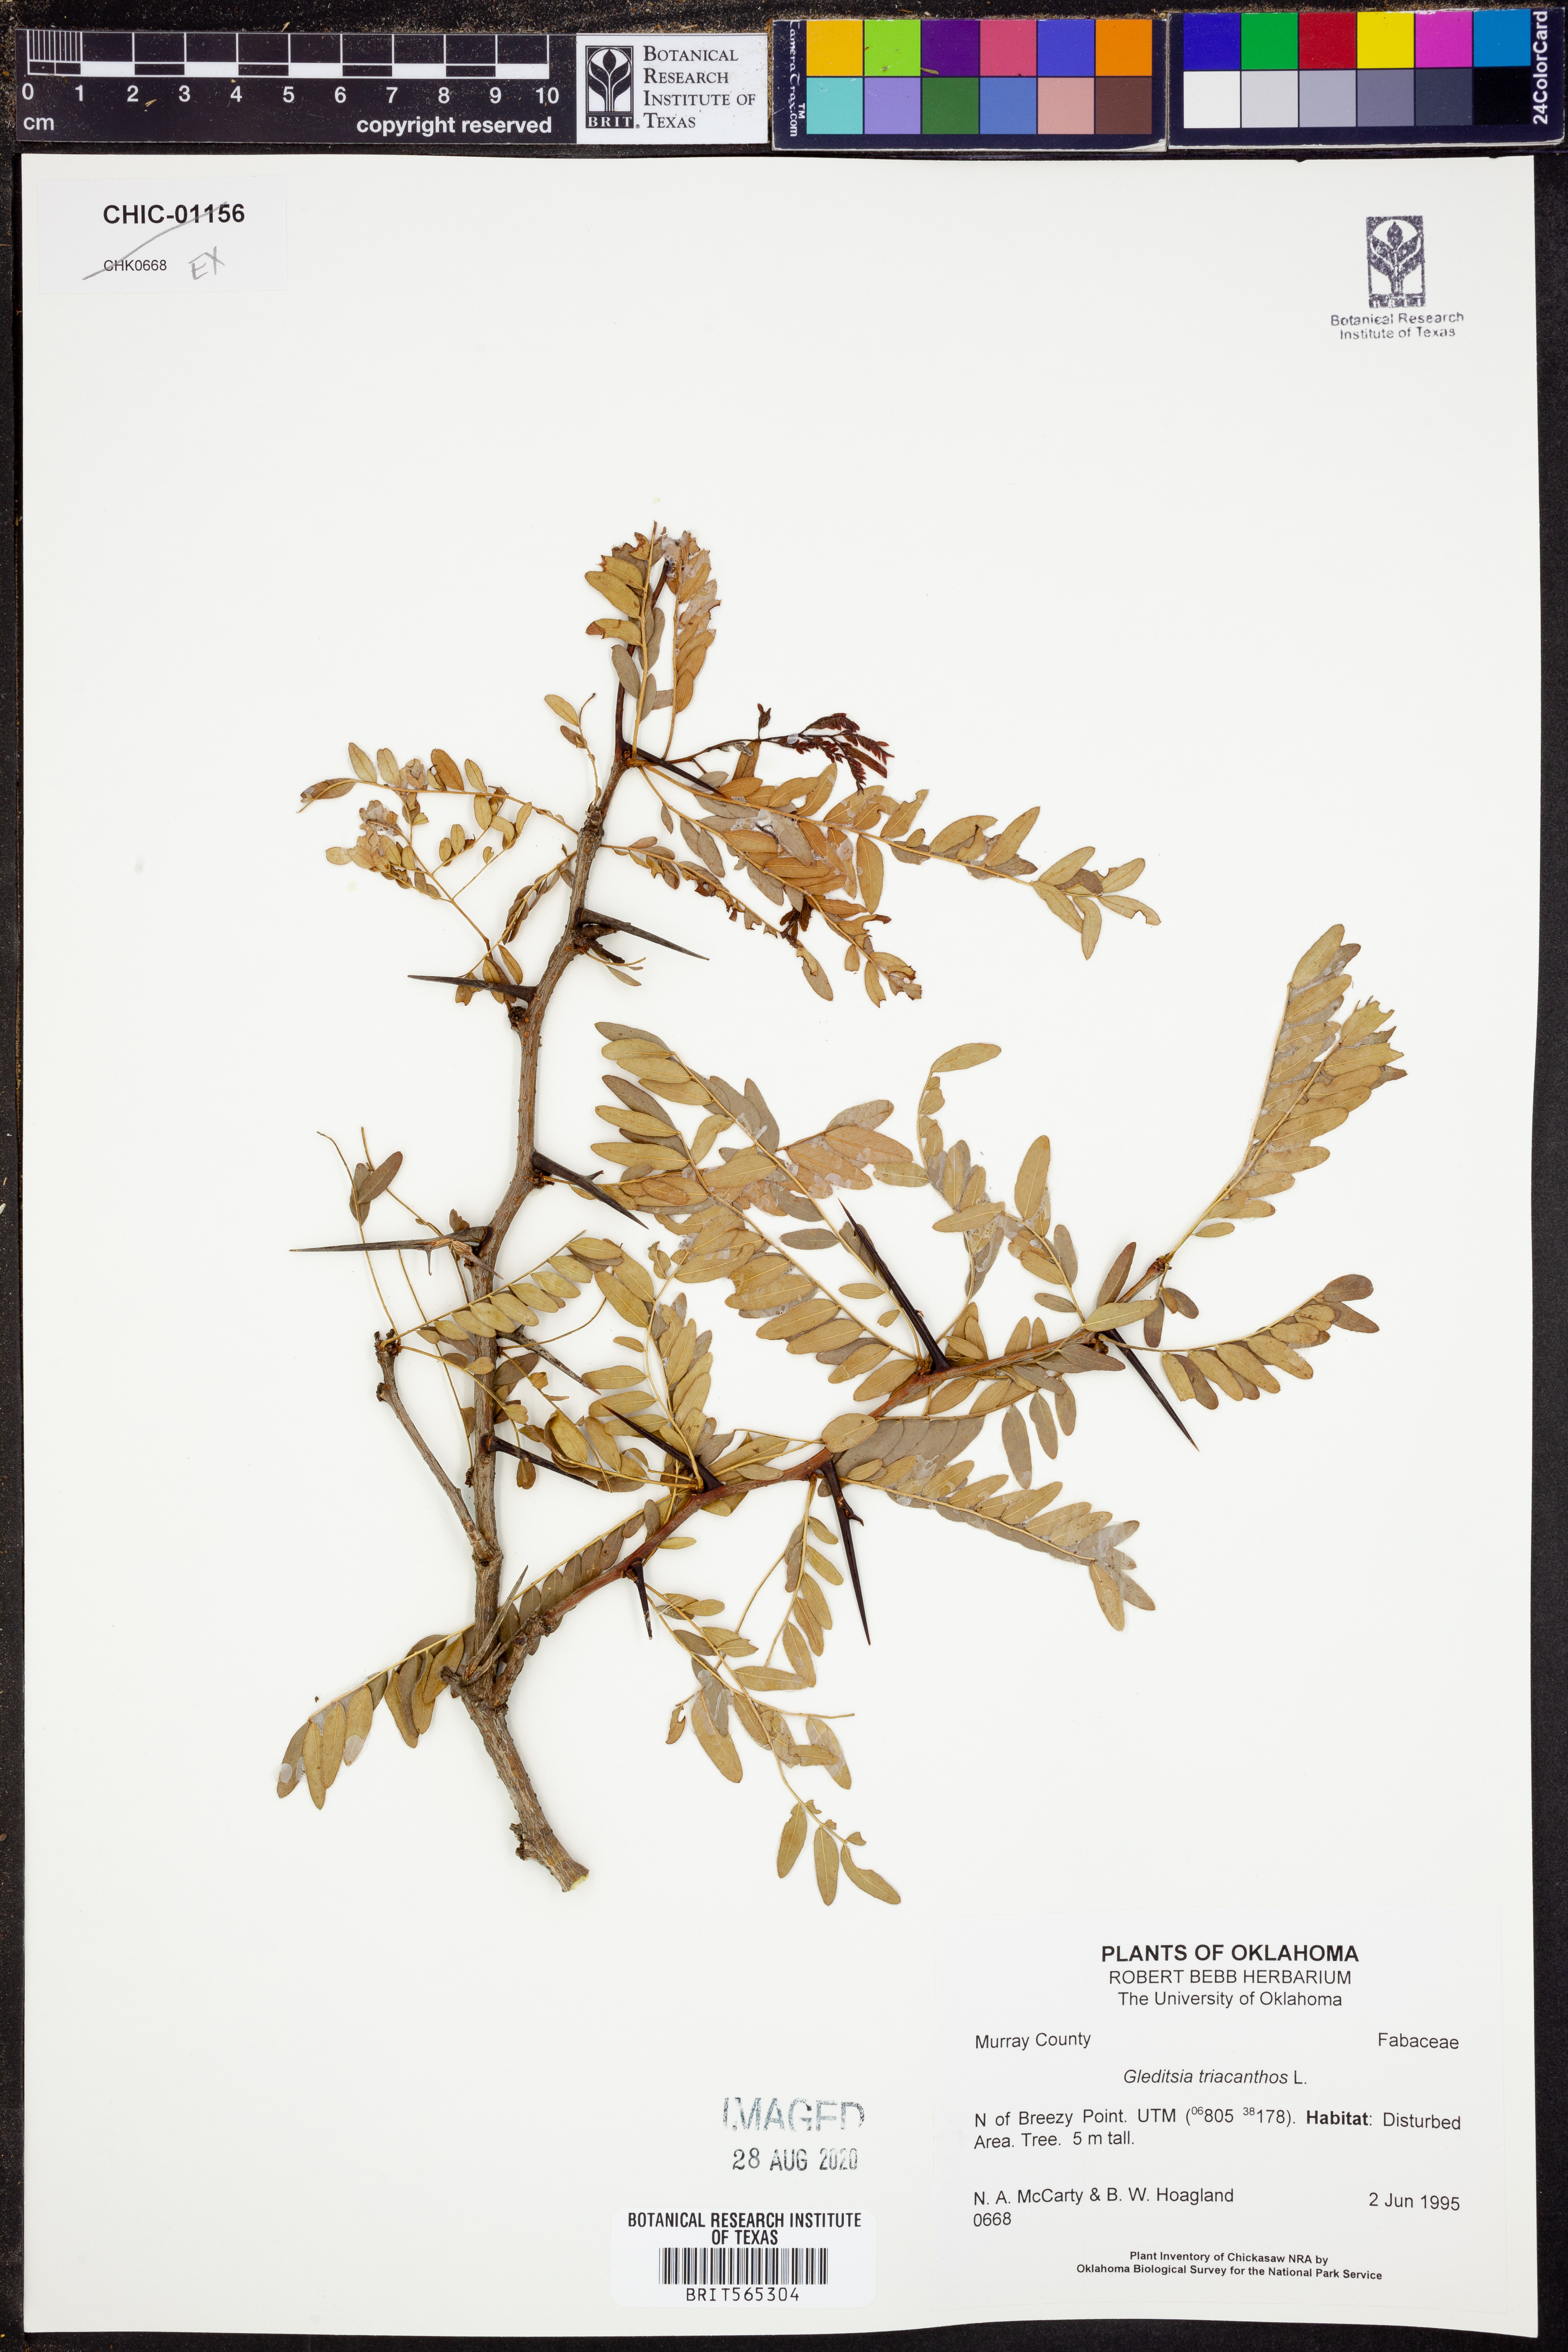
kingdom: Plantae
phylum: Tracheophyta
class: Magnoliopsida
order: Fabales
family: Fabaceae
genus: Gleditsia
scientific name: Gleditsia triacanthos
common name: Common honeylocust
